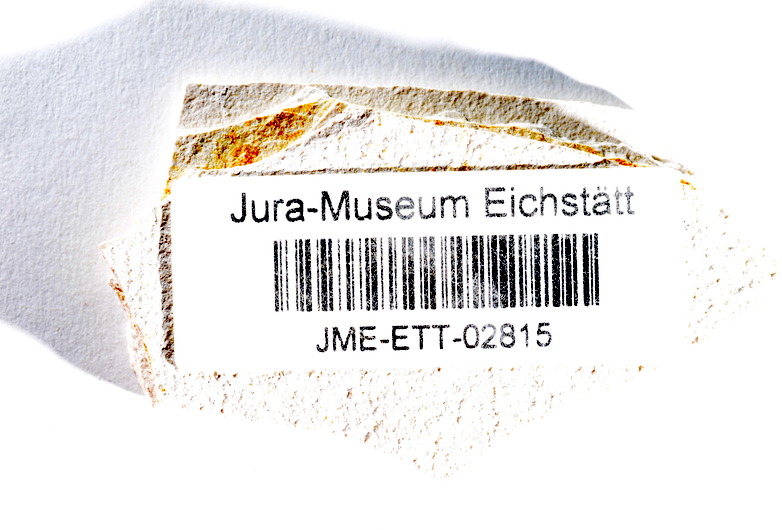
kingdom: Animalia
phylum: Chordata
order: Salmoniformes
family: Orthogonikleithridae
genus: Orthogonikleithrus
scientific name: Orthogonikleithrus hoelli
